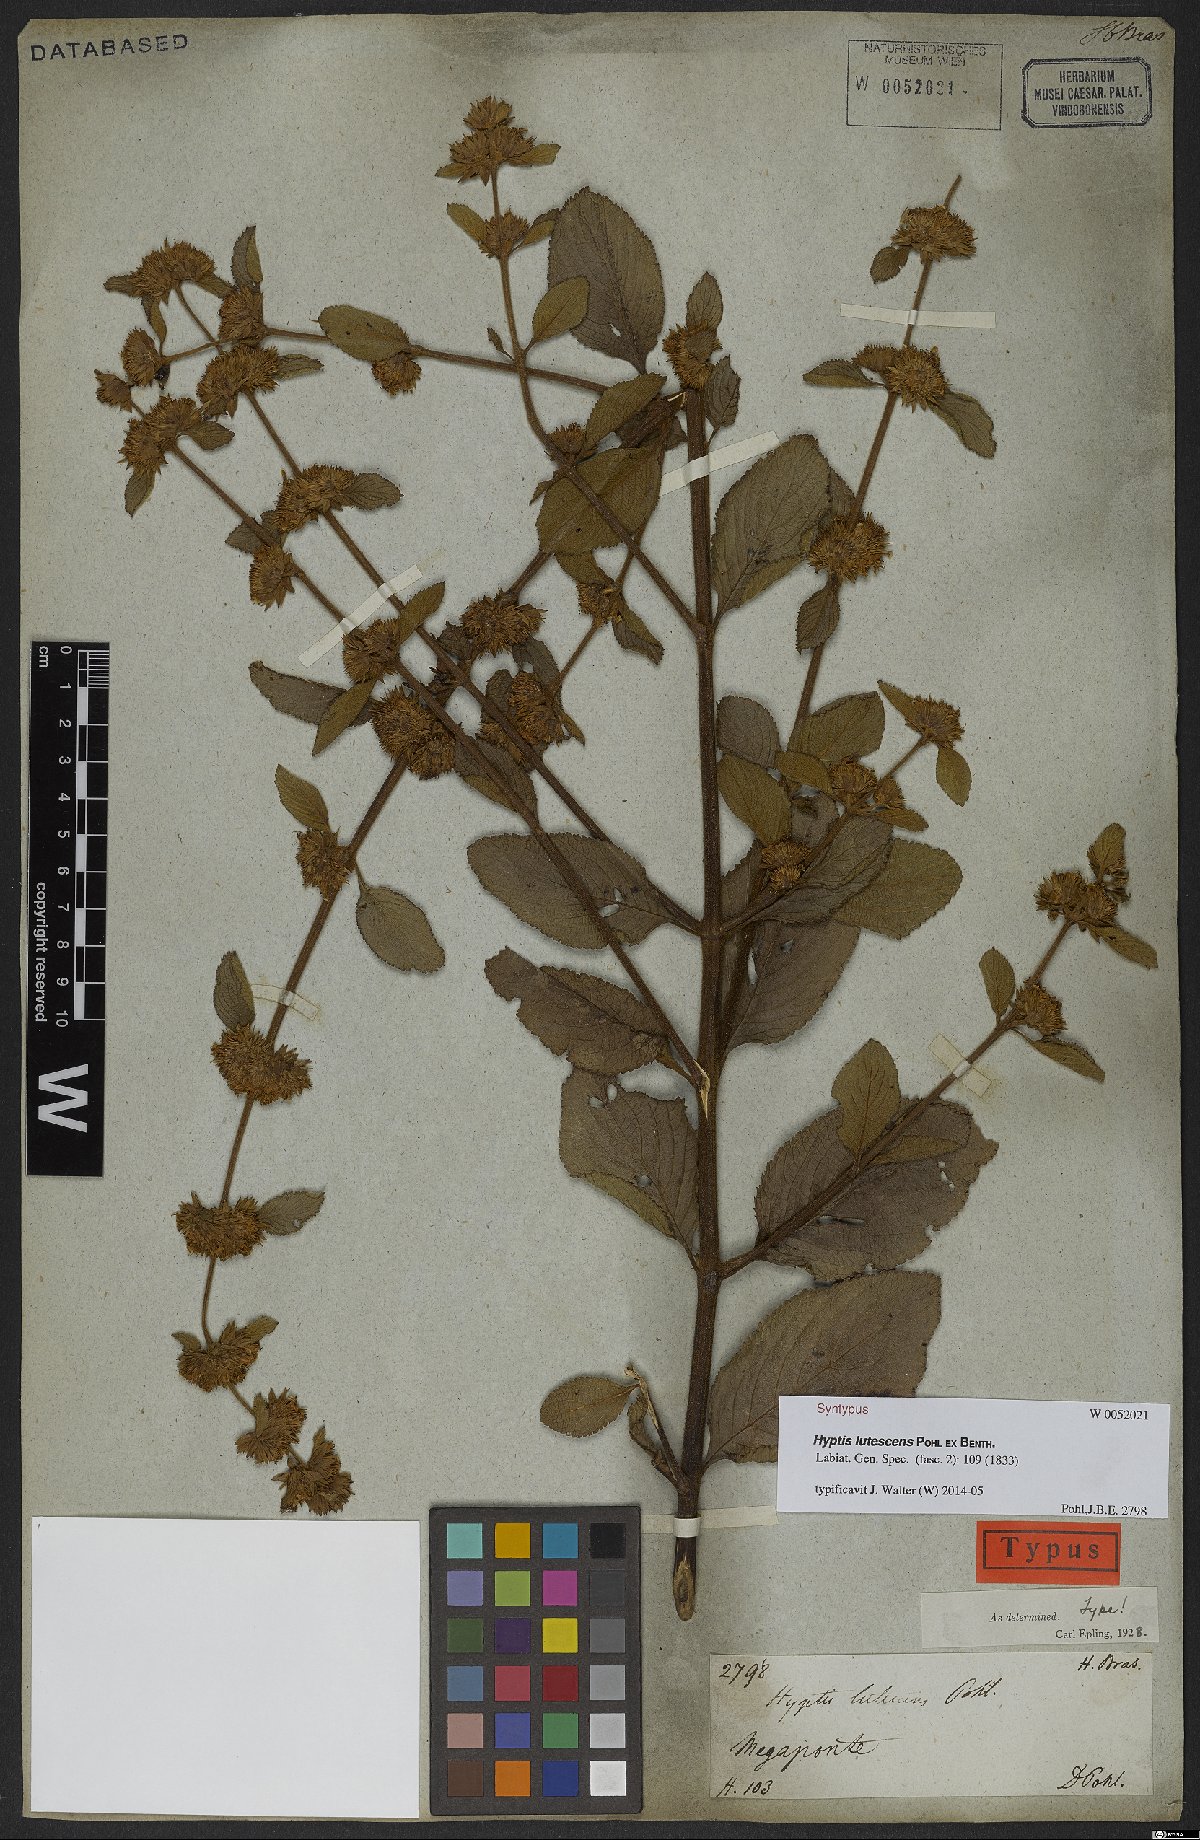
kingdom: Plantae
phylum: Tracheophyta
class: Magnoliopsida
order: Lamiales
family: Lamiaceae
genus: Hyptis
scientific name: Hyptis lutescens
